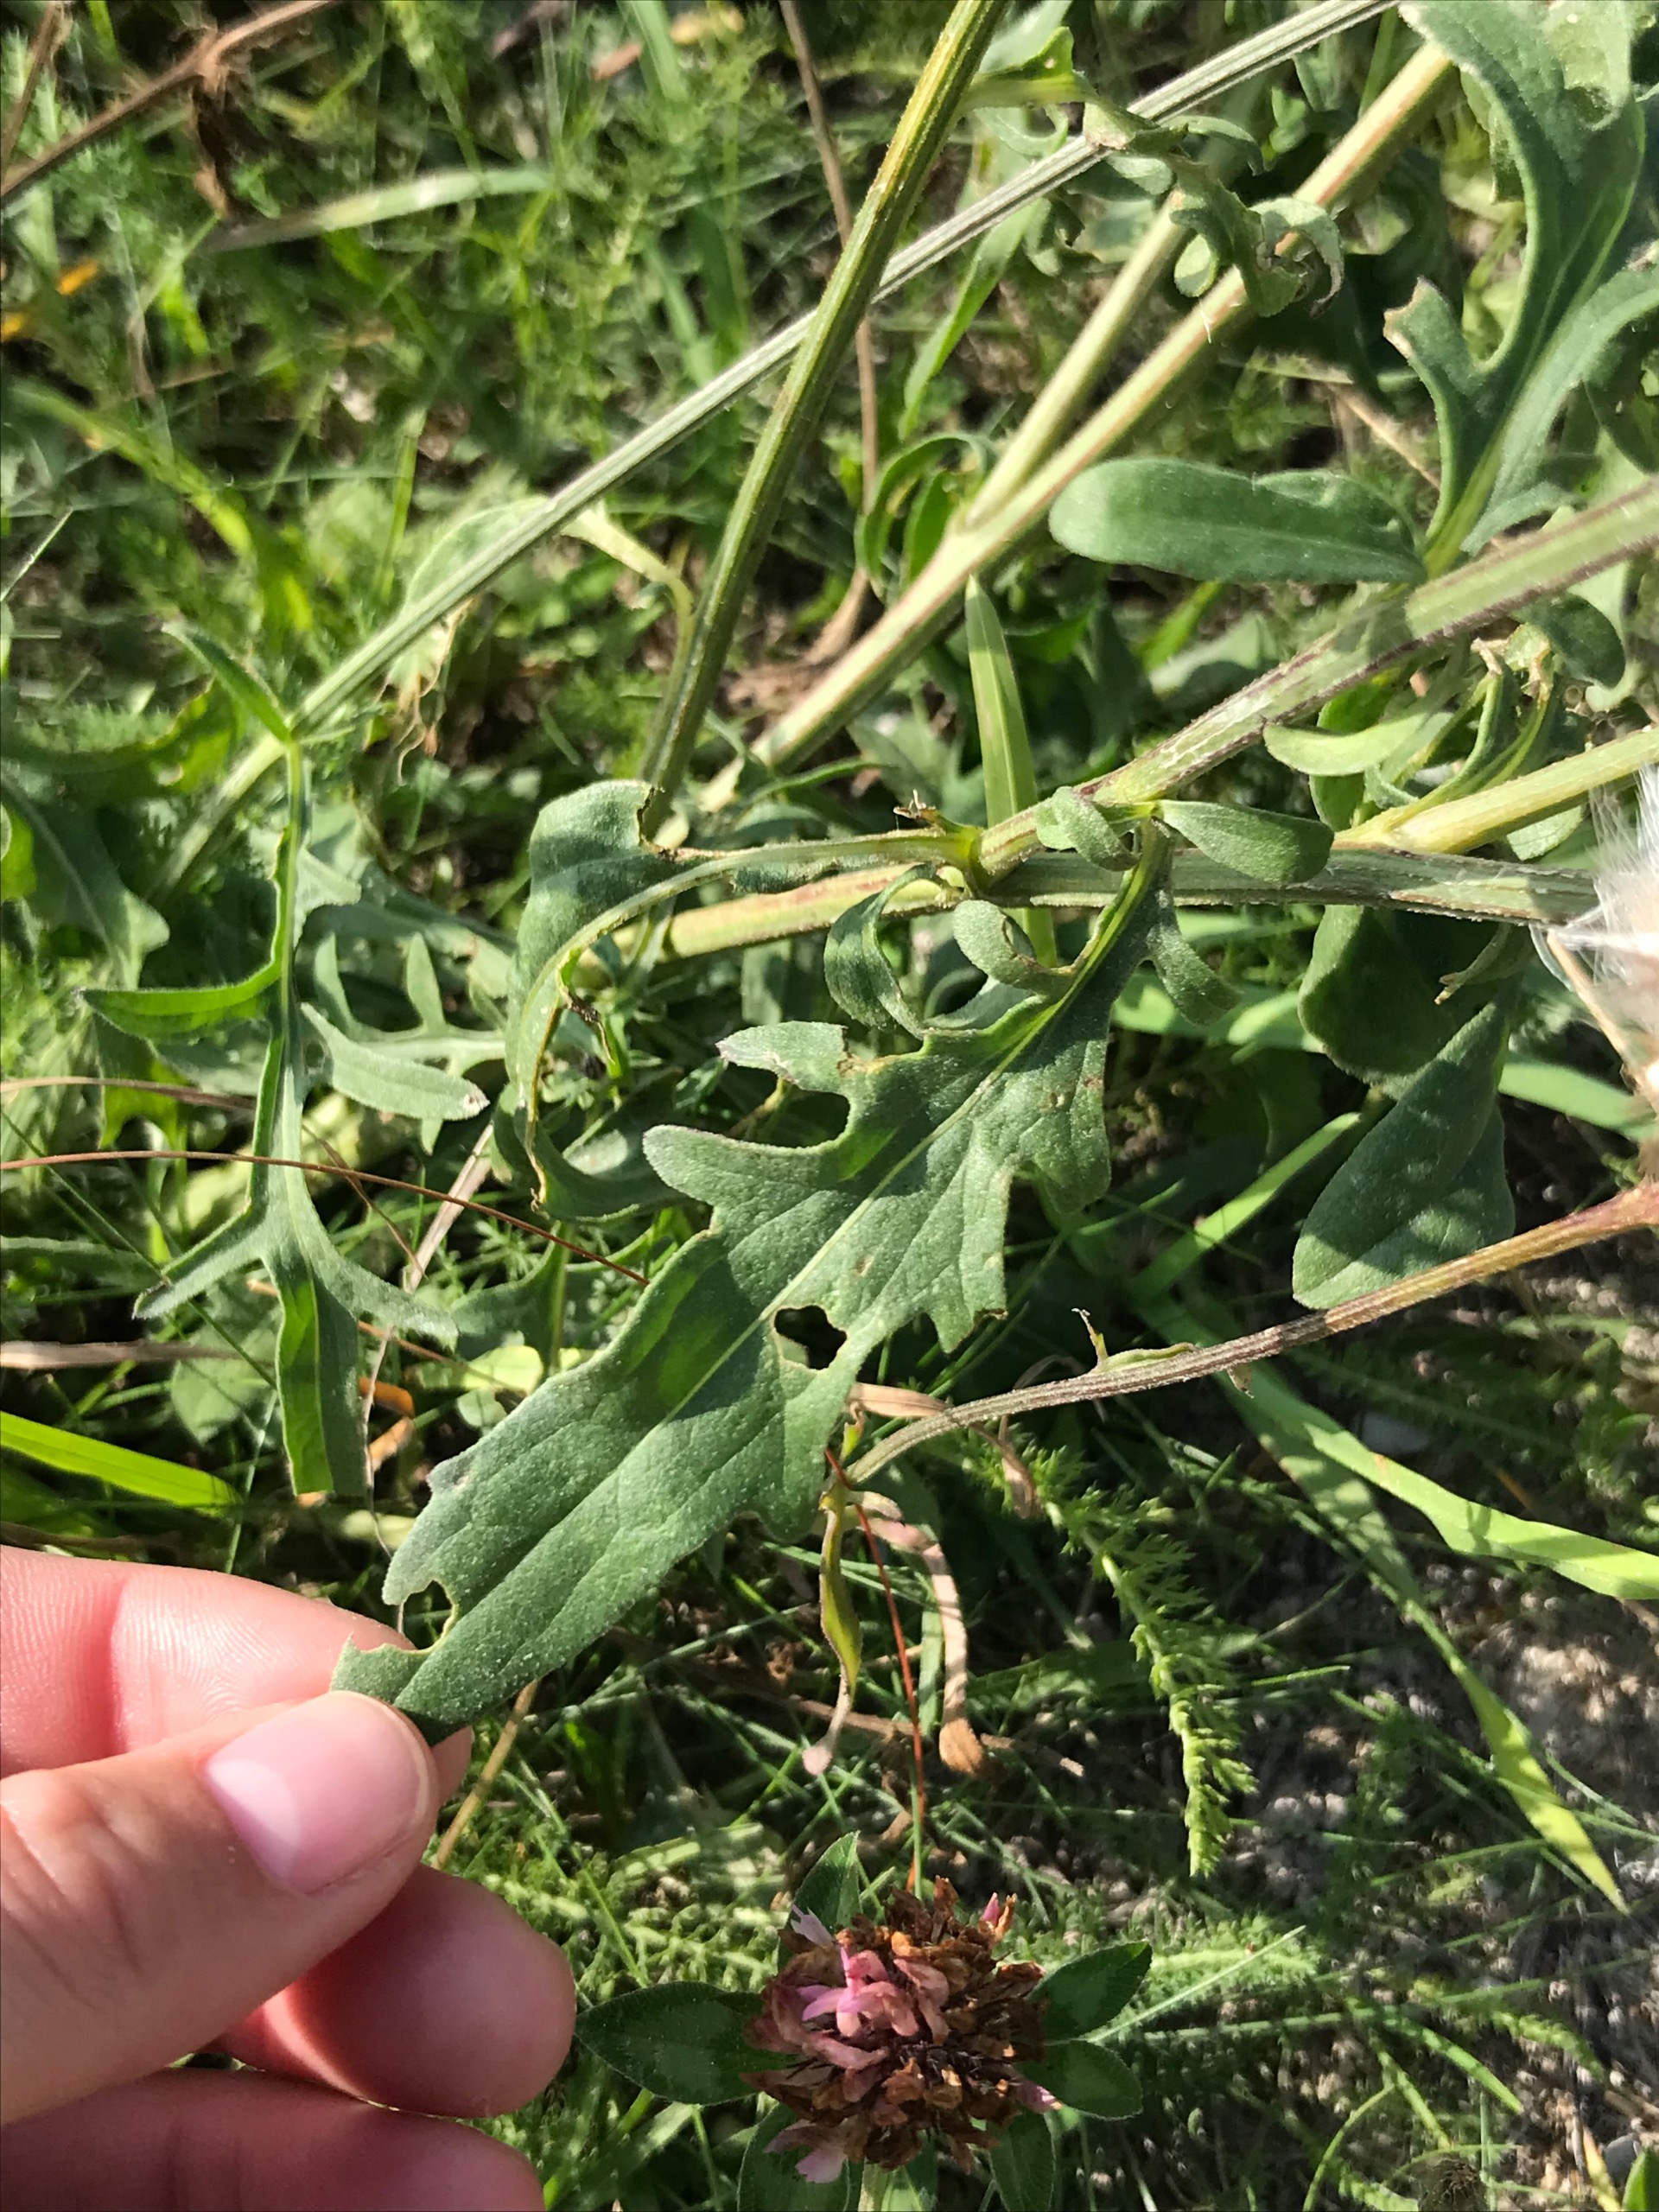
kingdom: Plantae
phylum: Tracheophyta
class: Magnoliopsida
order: Asterales
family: Asteraceae
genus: Centaurea
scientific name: Centaurea scabiosa
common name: Stor knopurt
